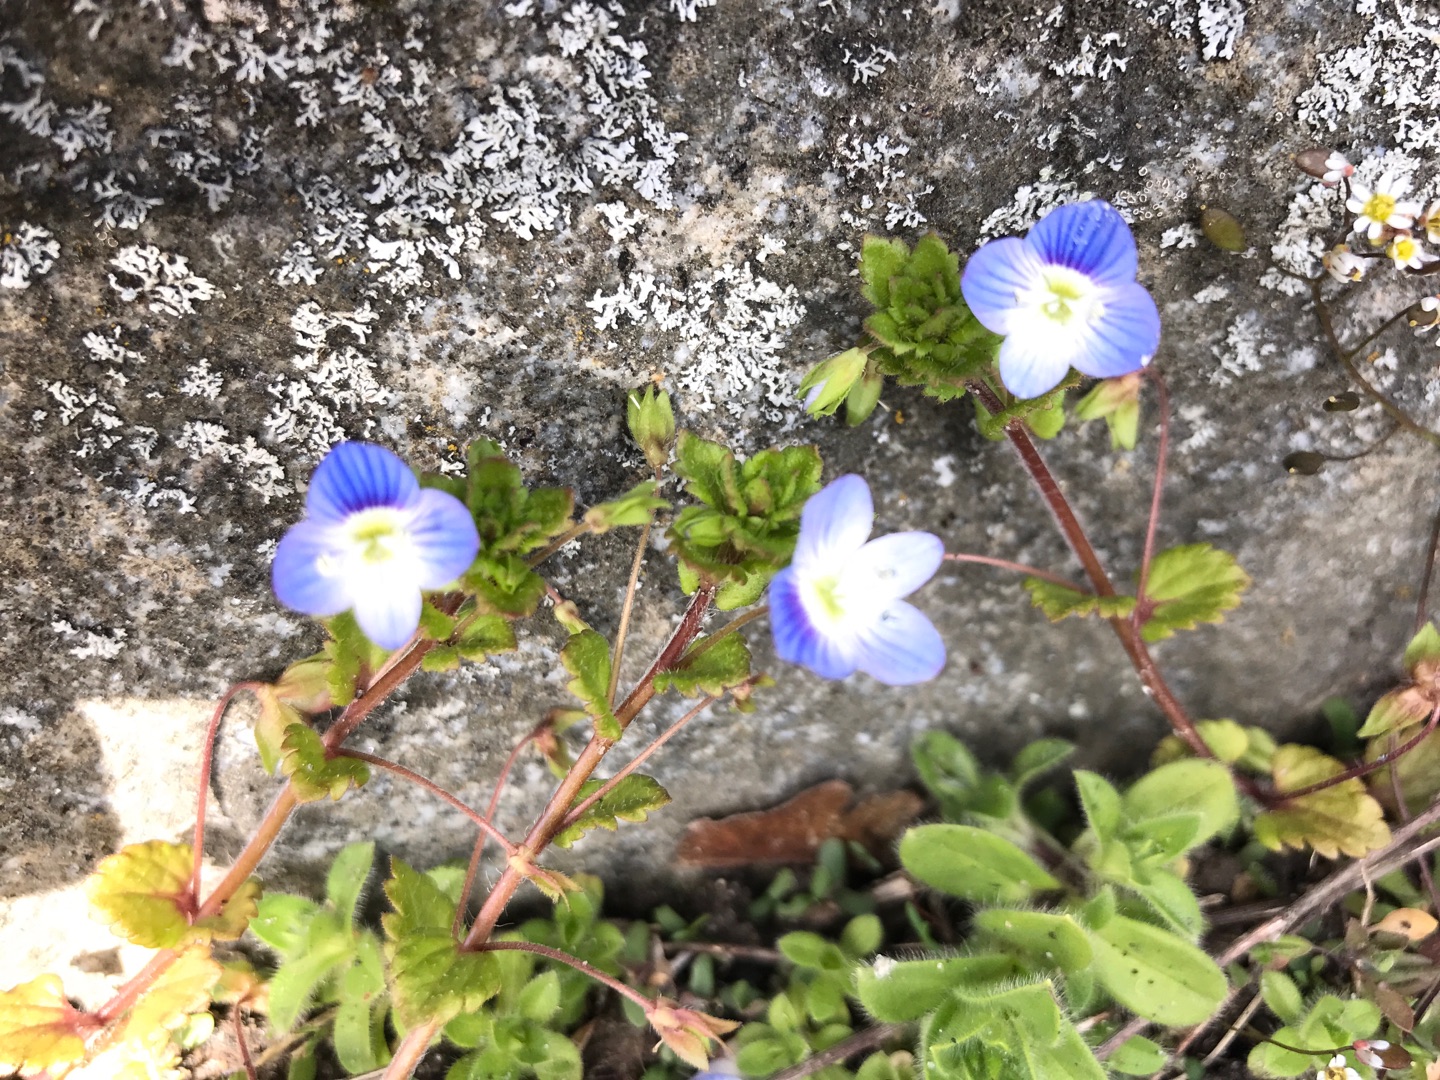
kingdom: Plantae
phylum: Tracheophyta
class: Magnoliopsida
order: Lamiales
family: Plantaginaceae
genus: Veronica
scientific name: Veronica persica
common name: Storkronet ærenpris
